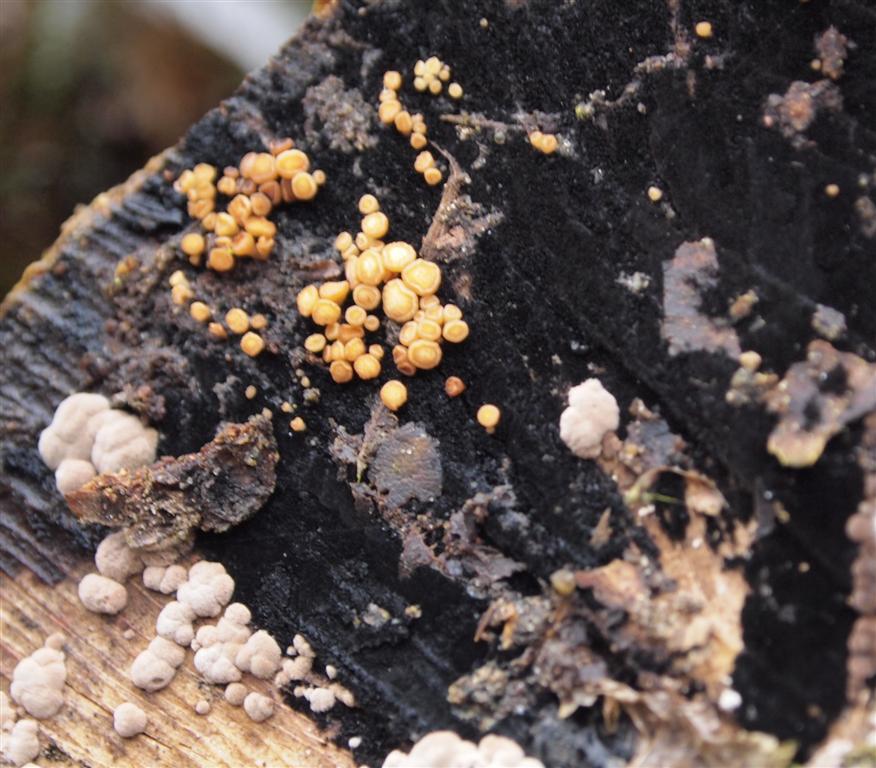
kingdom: Fungi
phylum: Ascomycota
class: Leotiomycetes
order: Helotiales
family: Helotiaceae
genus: Bispora
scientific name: Bispora pallescens
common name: måtte-snitskive
